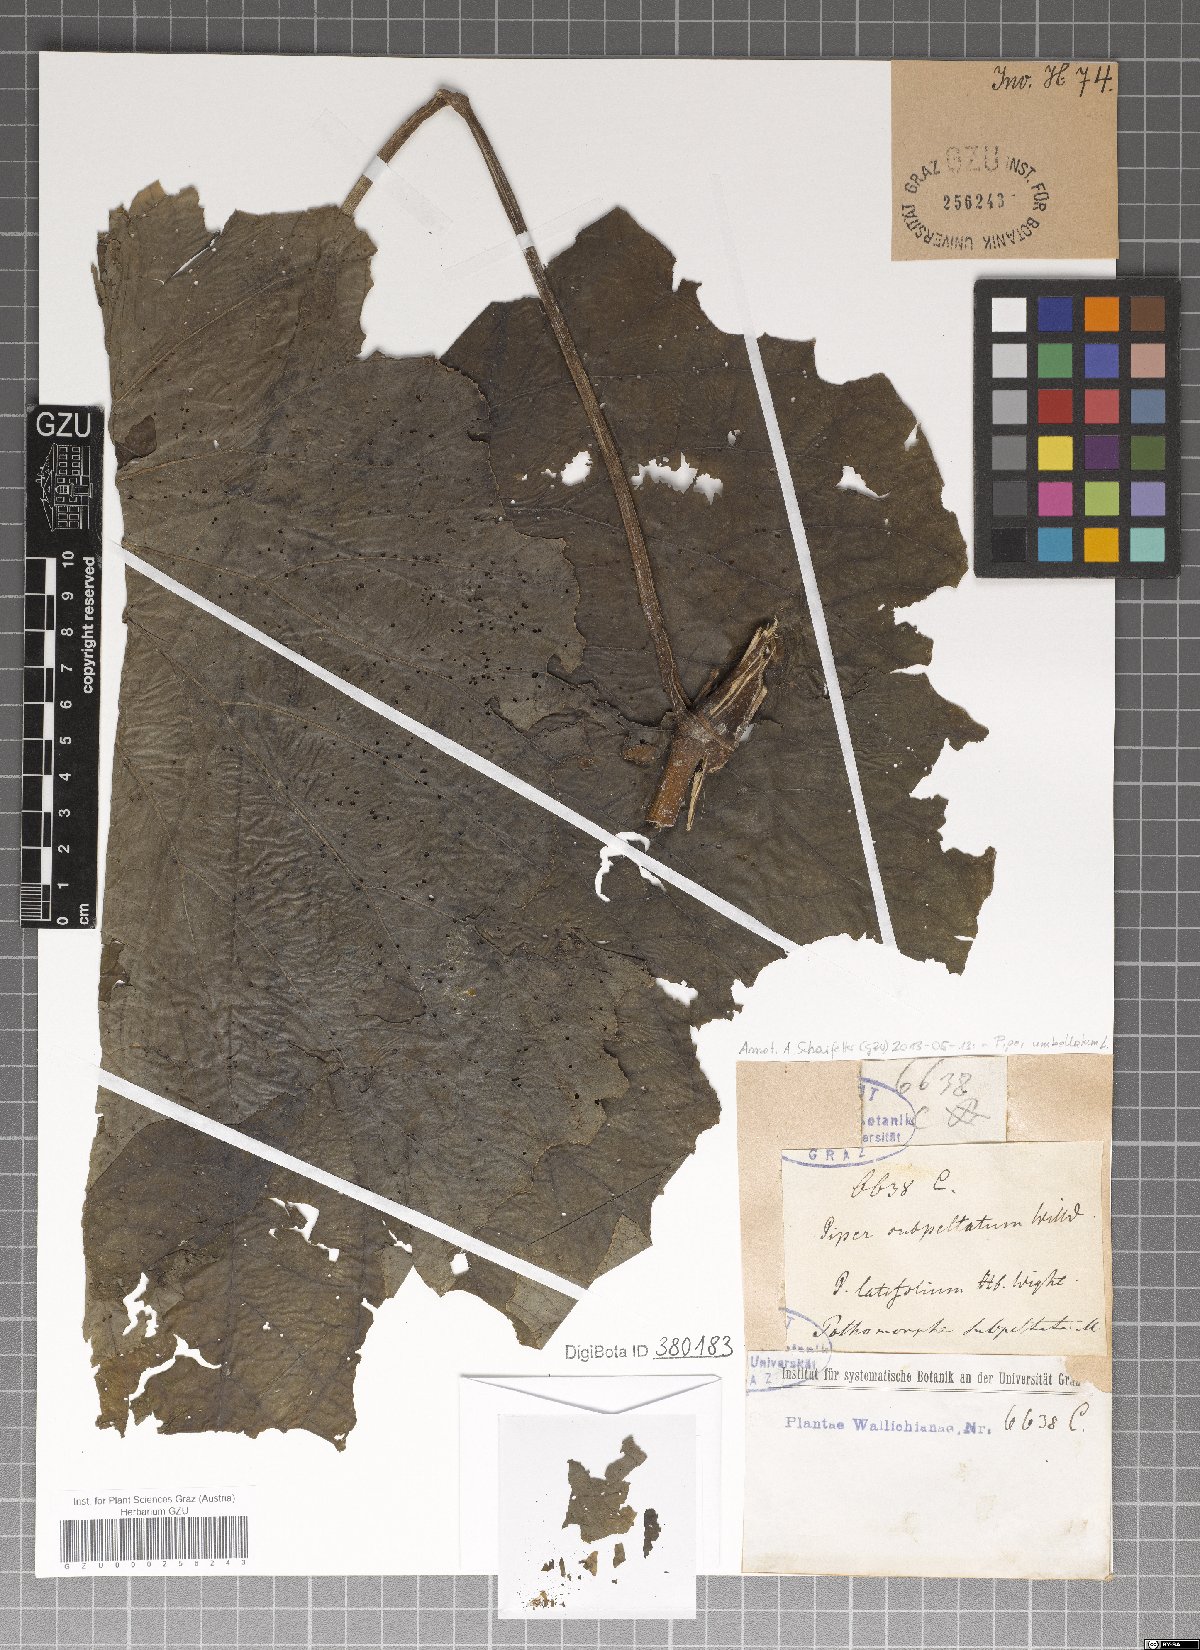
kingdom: Plantae
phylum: Tracheophyta
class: Magnoliopsida
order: Piperales
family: Piperaceae
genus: Piper
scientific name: Piper umbellatum
